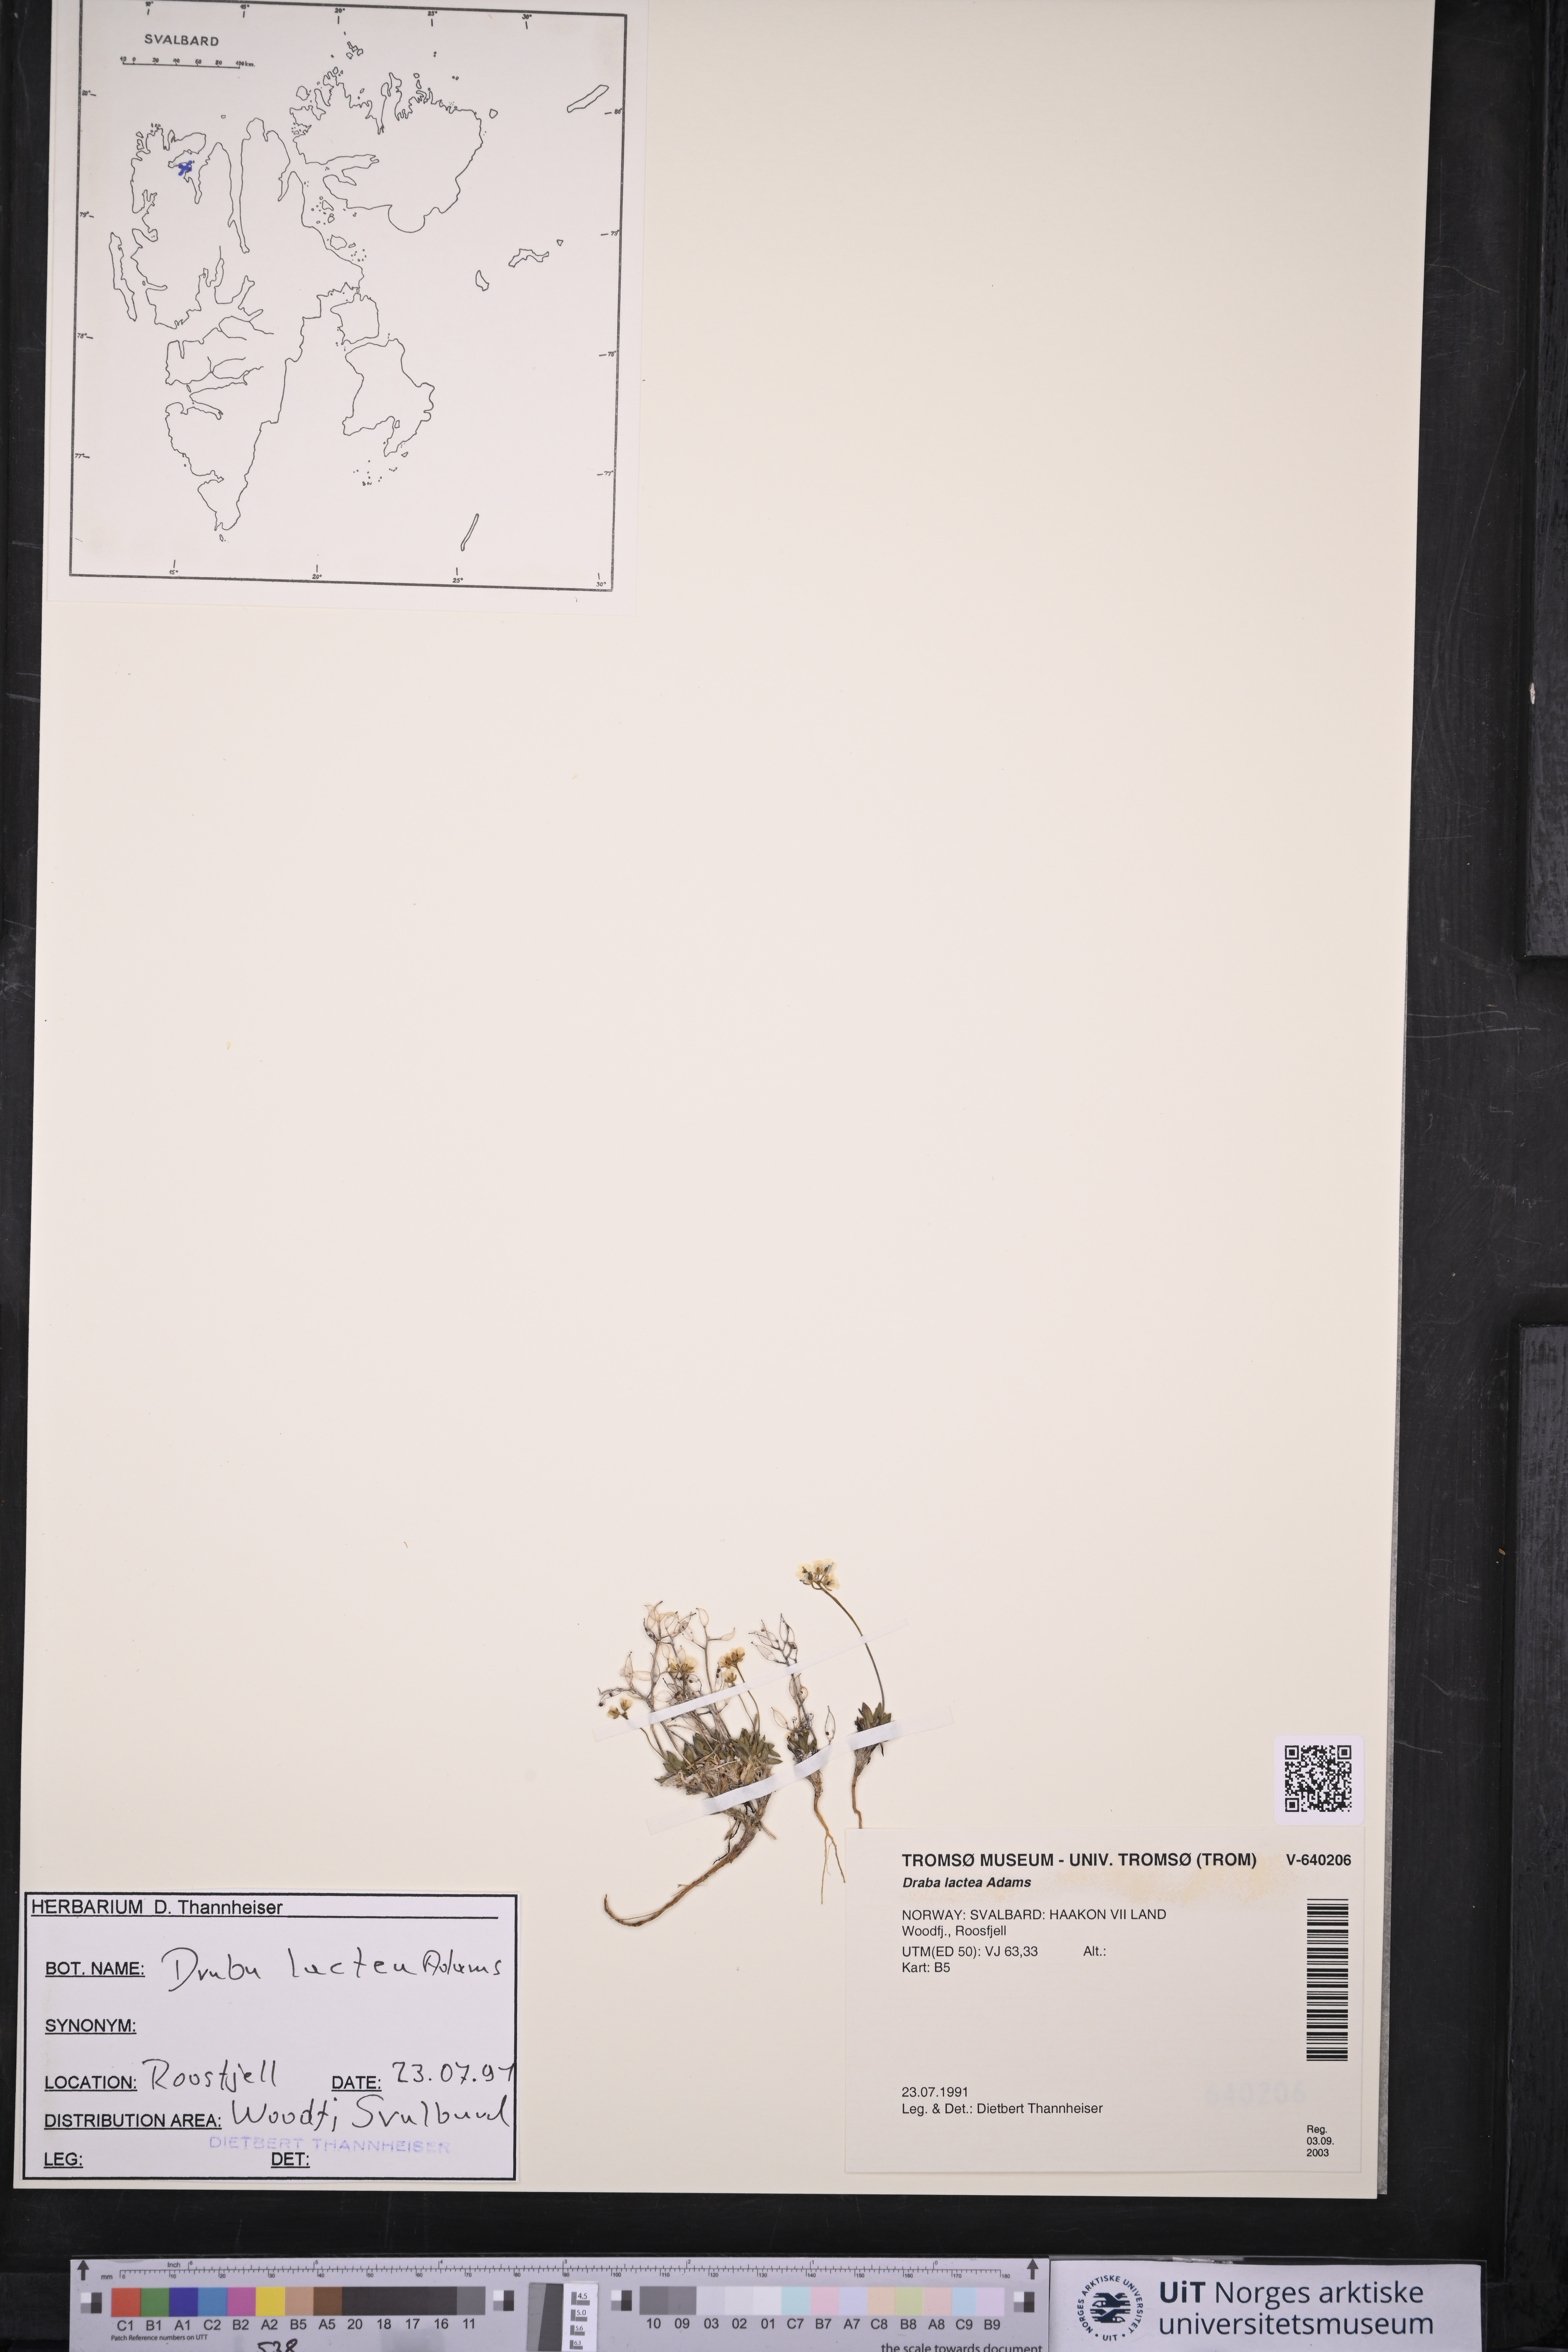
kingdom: Plantae
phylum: Tracheophyta
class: Magnoliopsida
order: Brassicales
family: Brassicaceae
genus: Draba
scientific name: Draba lactea
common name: Milky draba
